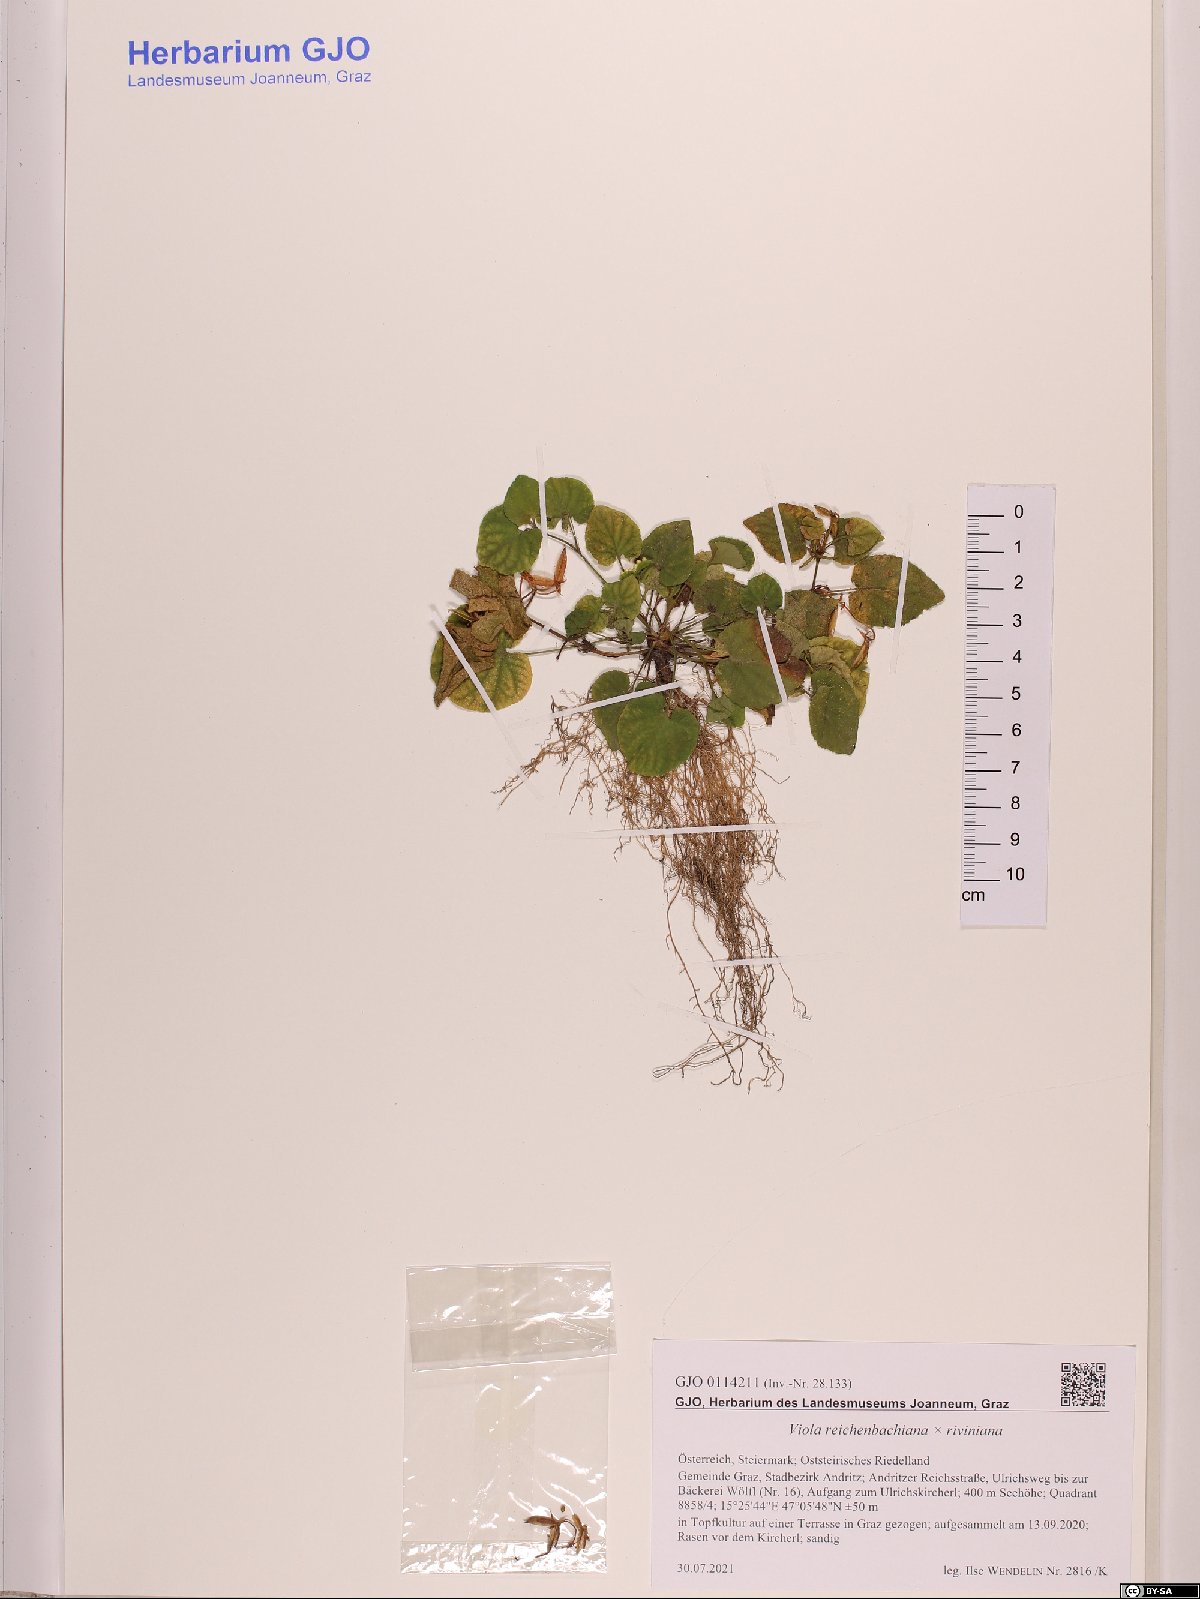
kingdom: Plantae
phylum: Tracheophyta
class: Magnoliopsida
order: Malpighiales
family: Violaceae
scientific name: Violaceae
